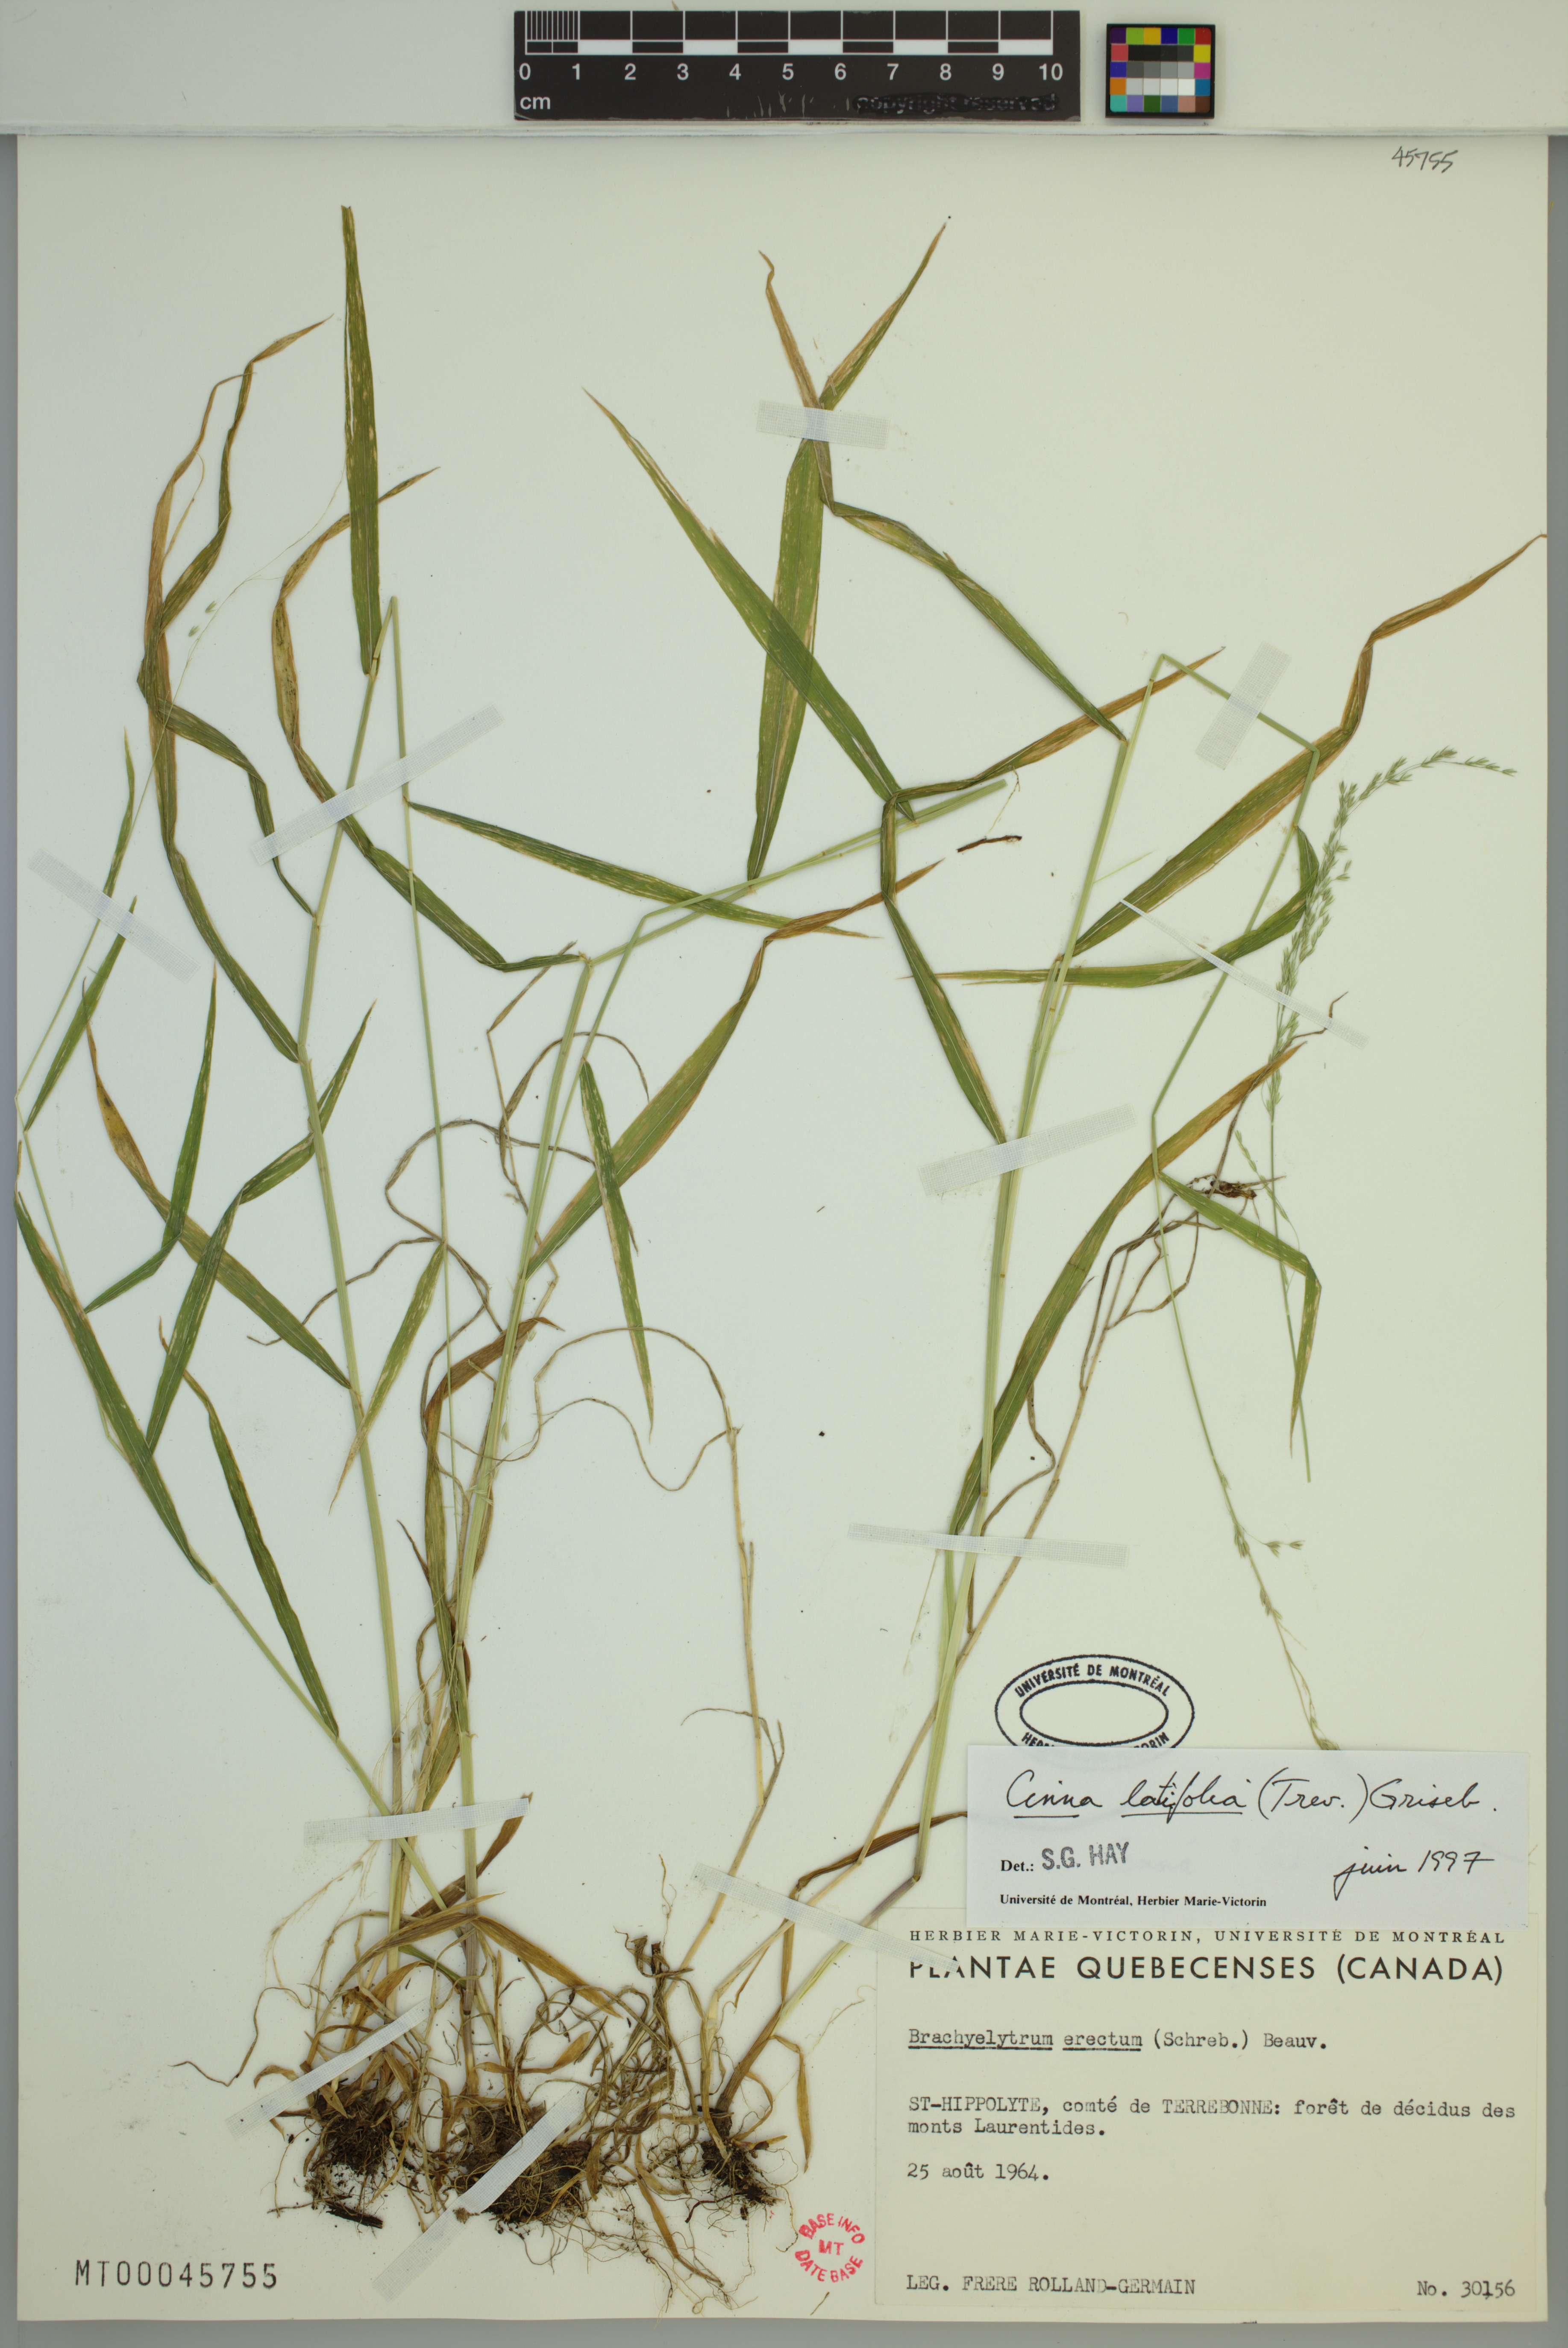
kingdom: Plantae
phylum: Tracheophyta
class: Liliopsida
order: Poales
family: Poaceae
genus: Cinna
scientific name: Cinna latifolia
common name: Drooping woodreed
